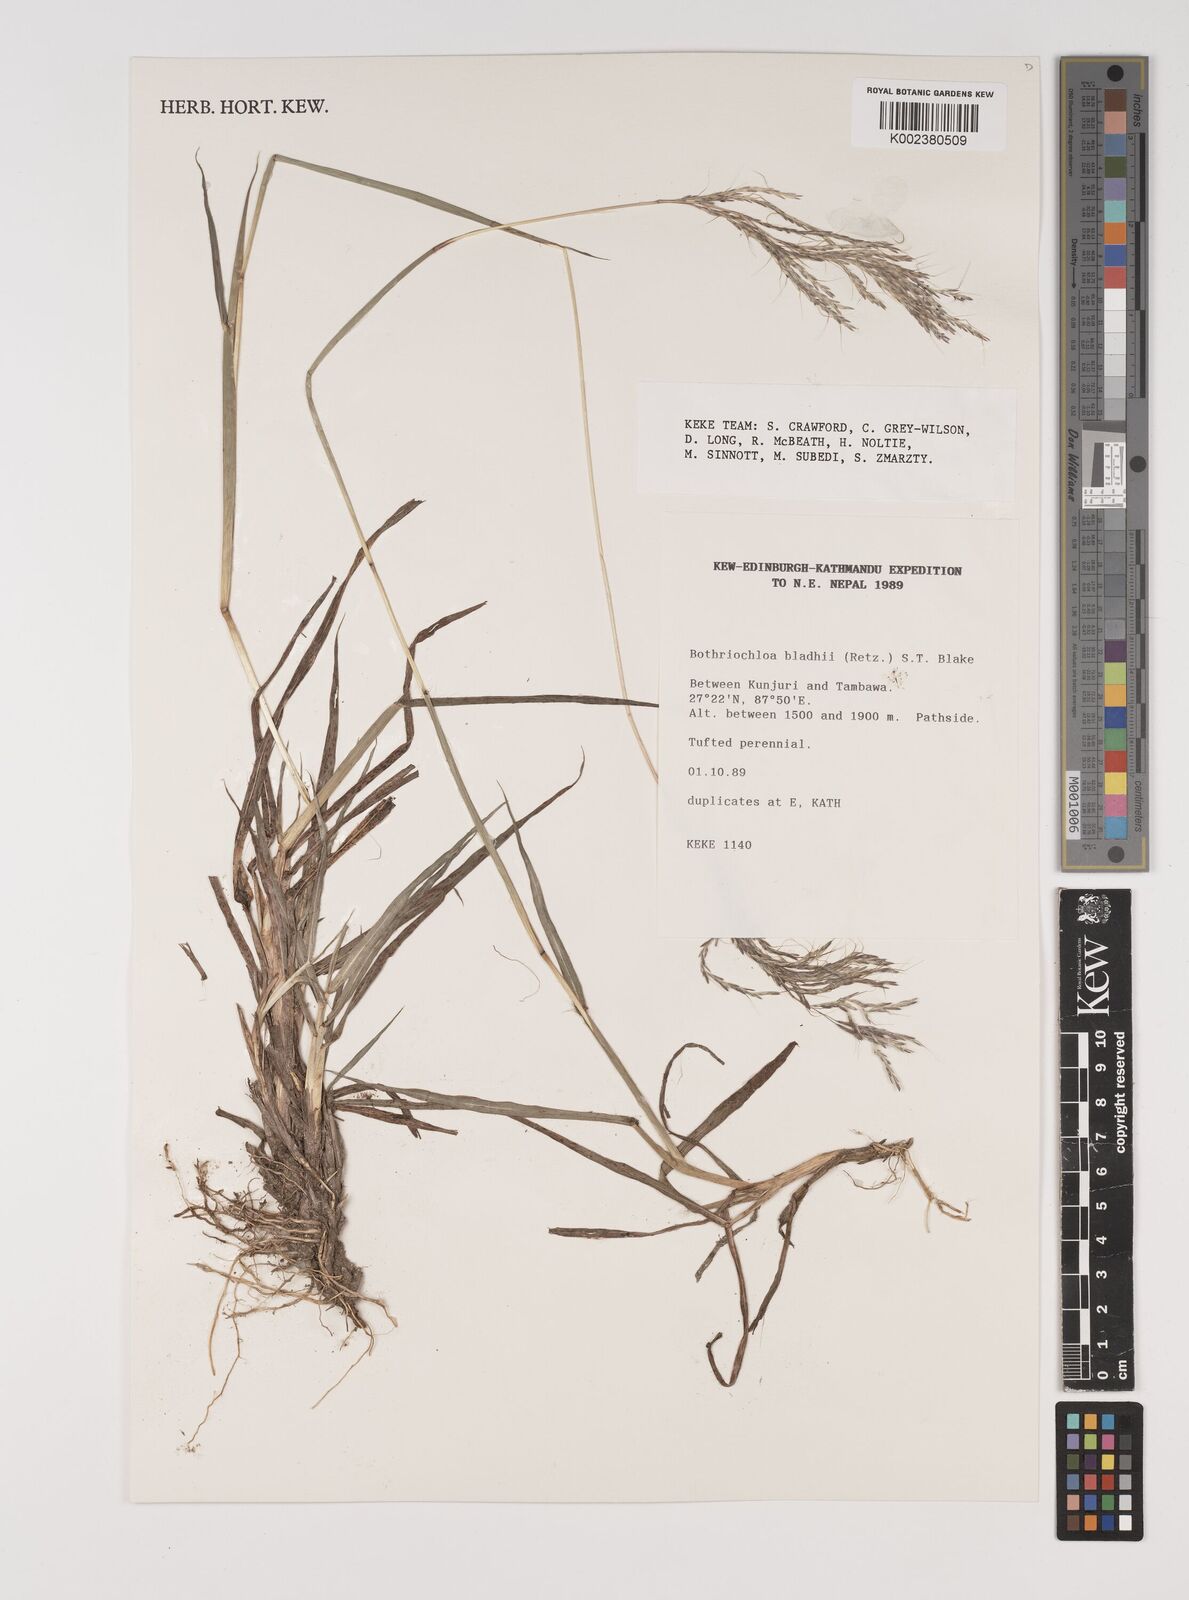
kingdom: Plantae
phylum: Tracheophyta
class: Liliopsida
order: Poales
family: Poaceae
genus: Bothriochloa
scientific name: Bothriochloa bladhii
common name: Caucasian bluestem
